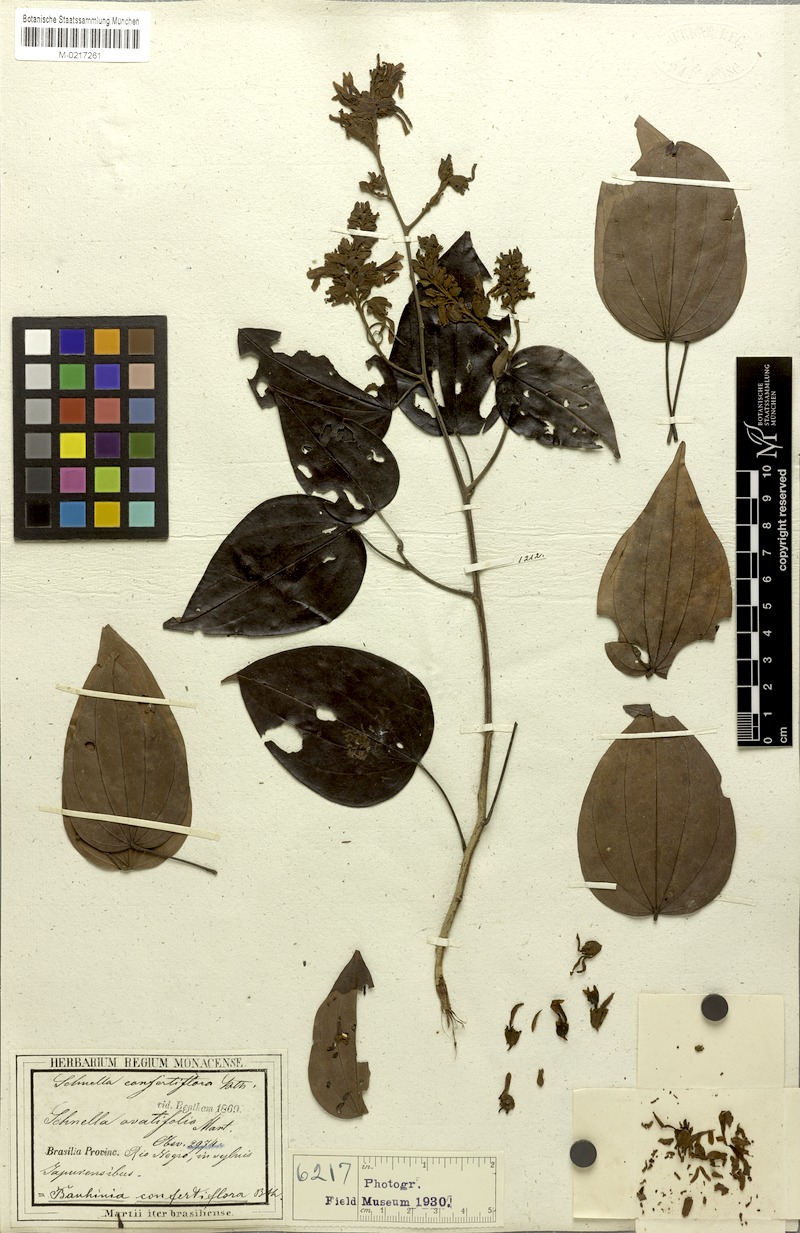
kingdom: Plantae
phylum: Tracheophyta
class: Magnoliopsida
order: Fabales
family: Fabaceae
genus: Schnella
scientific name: Schnella confertiflora
